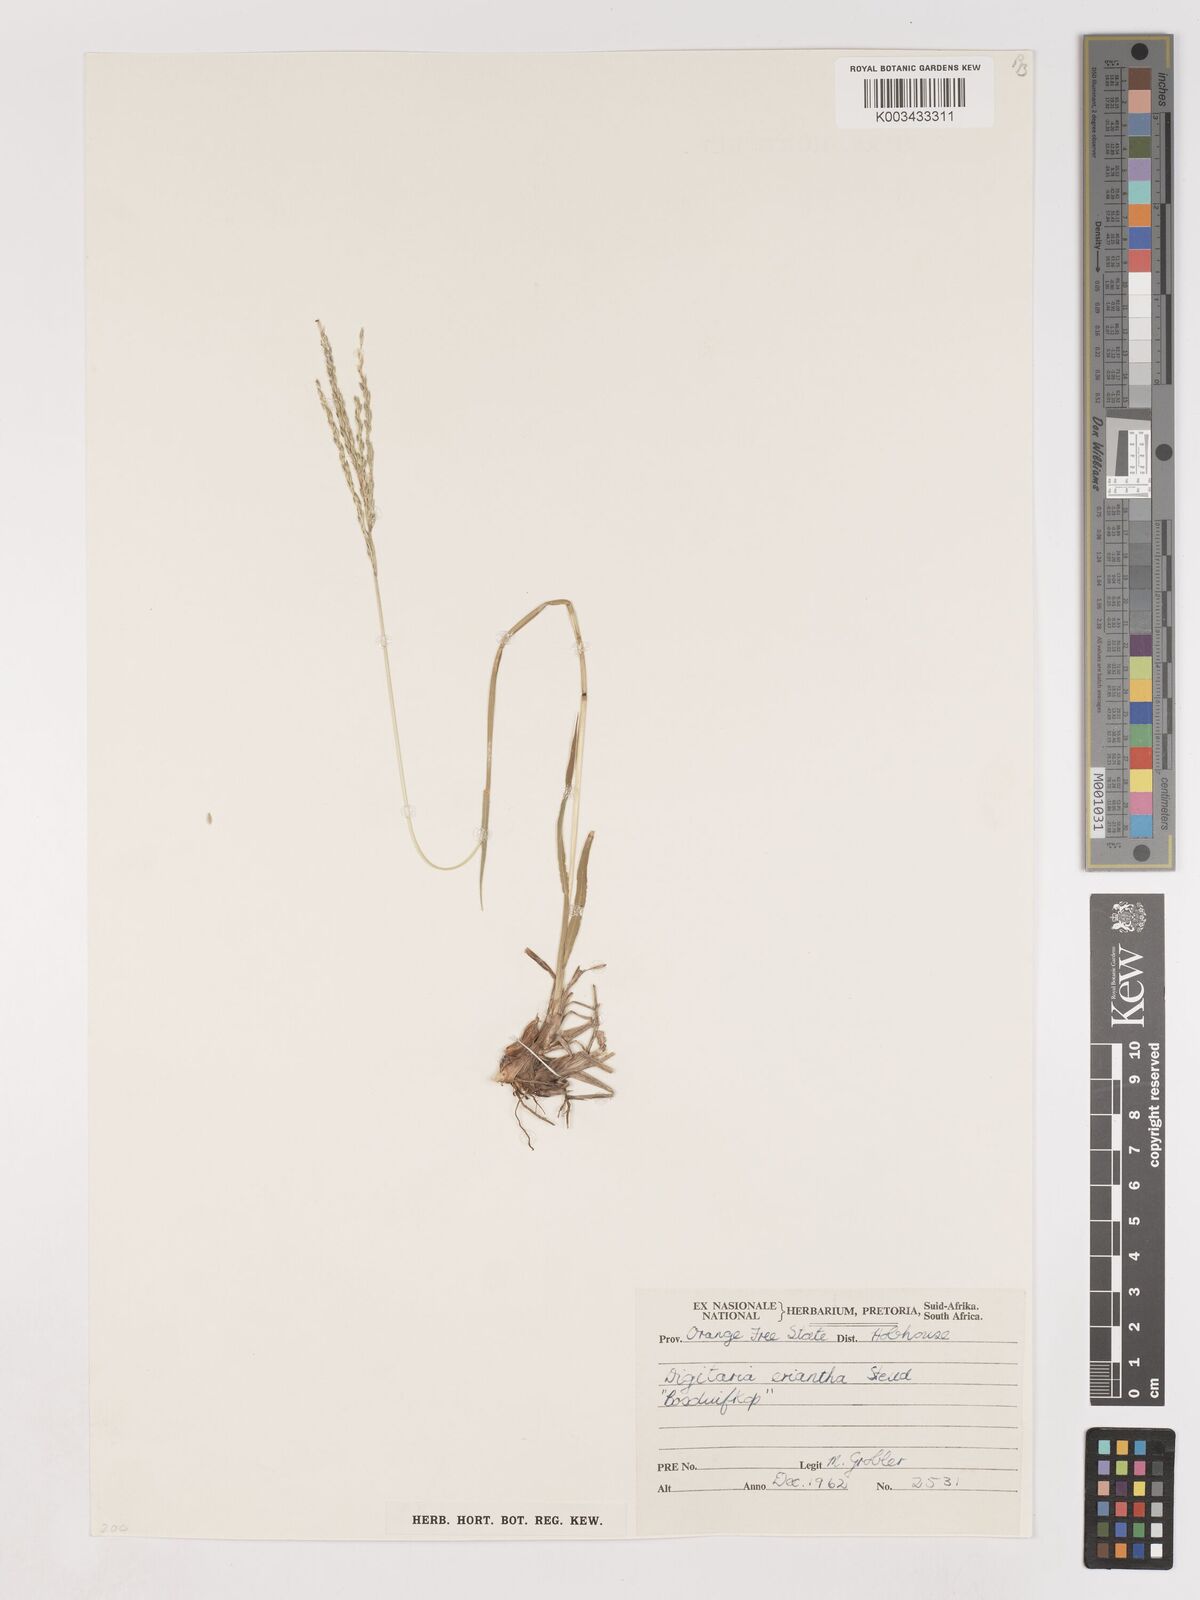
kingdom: Plantae
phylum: Tracheophyta
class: Liliopsida
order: Poales
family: Poaceae
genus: Digitaria
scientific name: Digitaria eriantha
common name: Digitgrass
